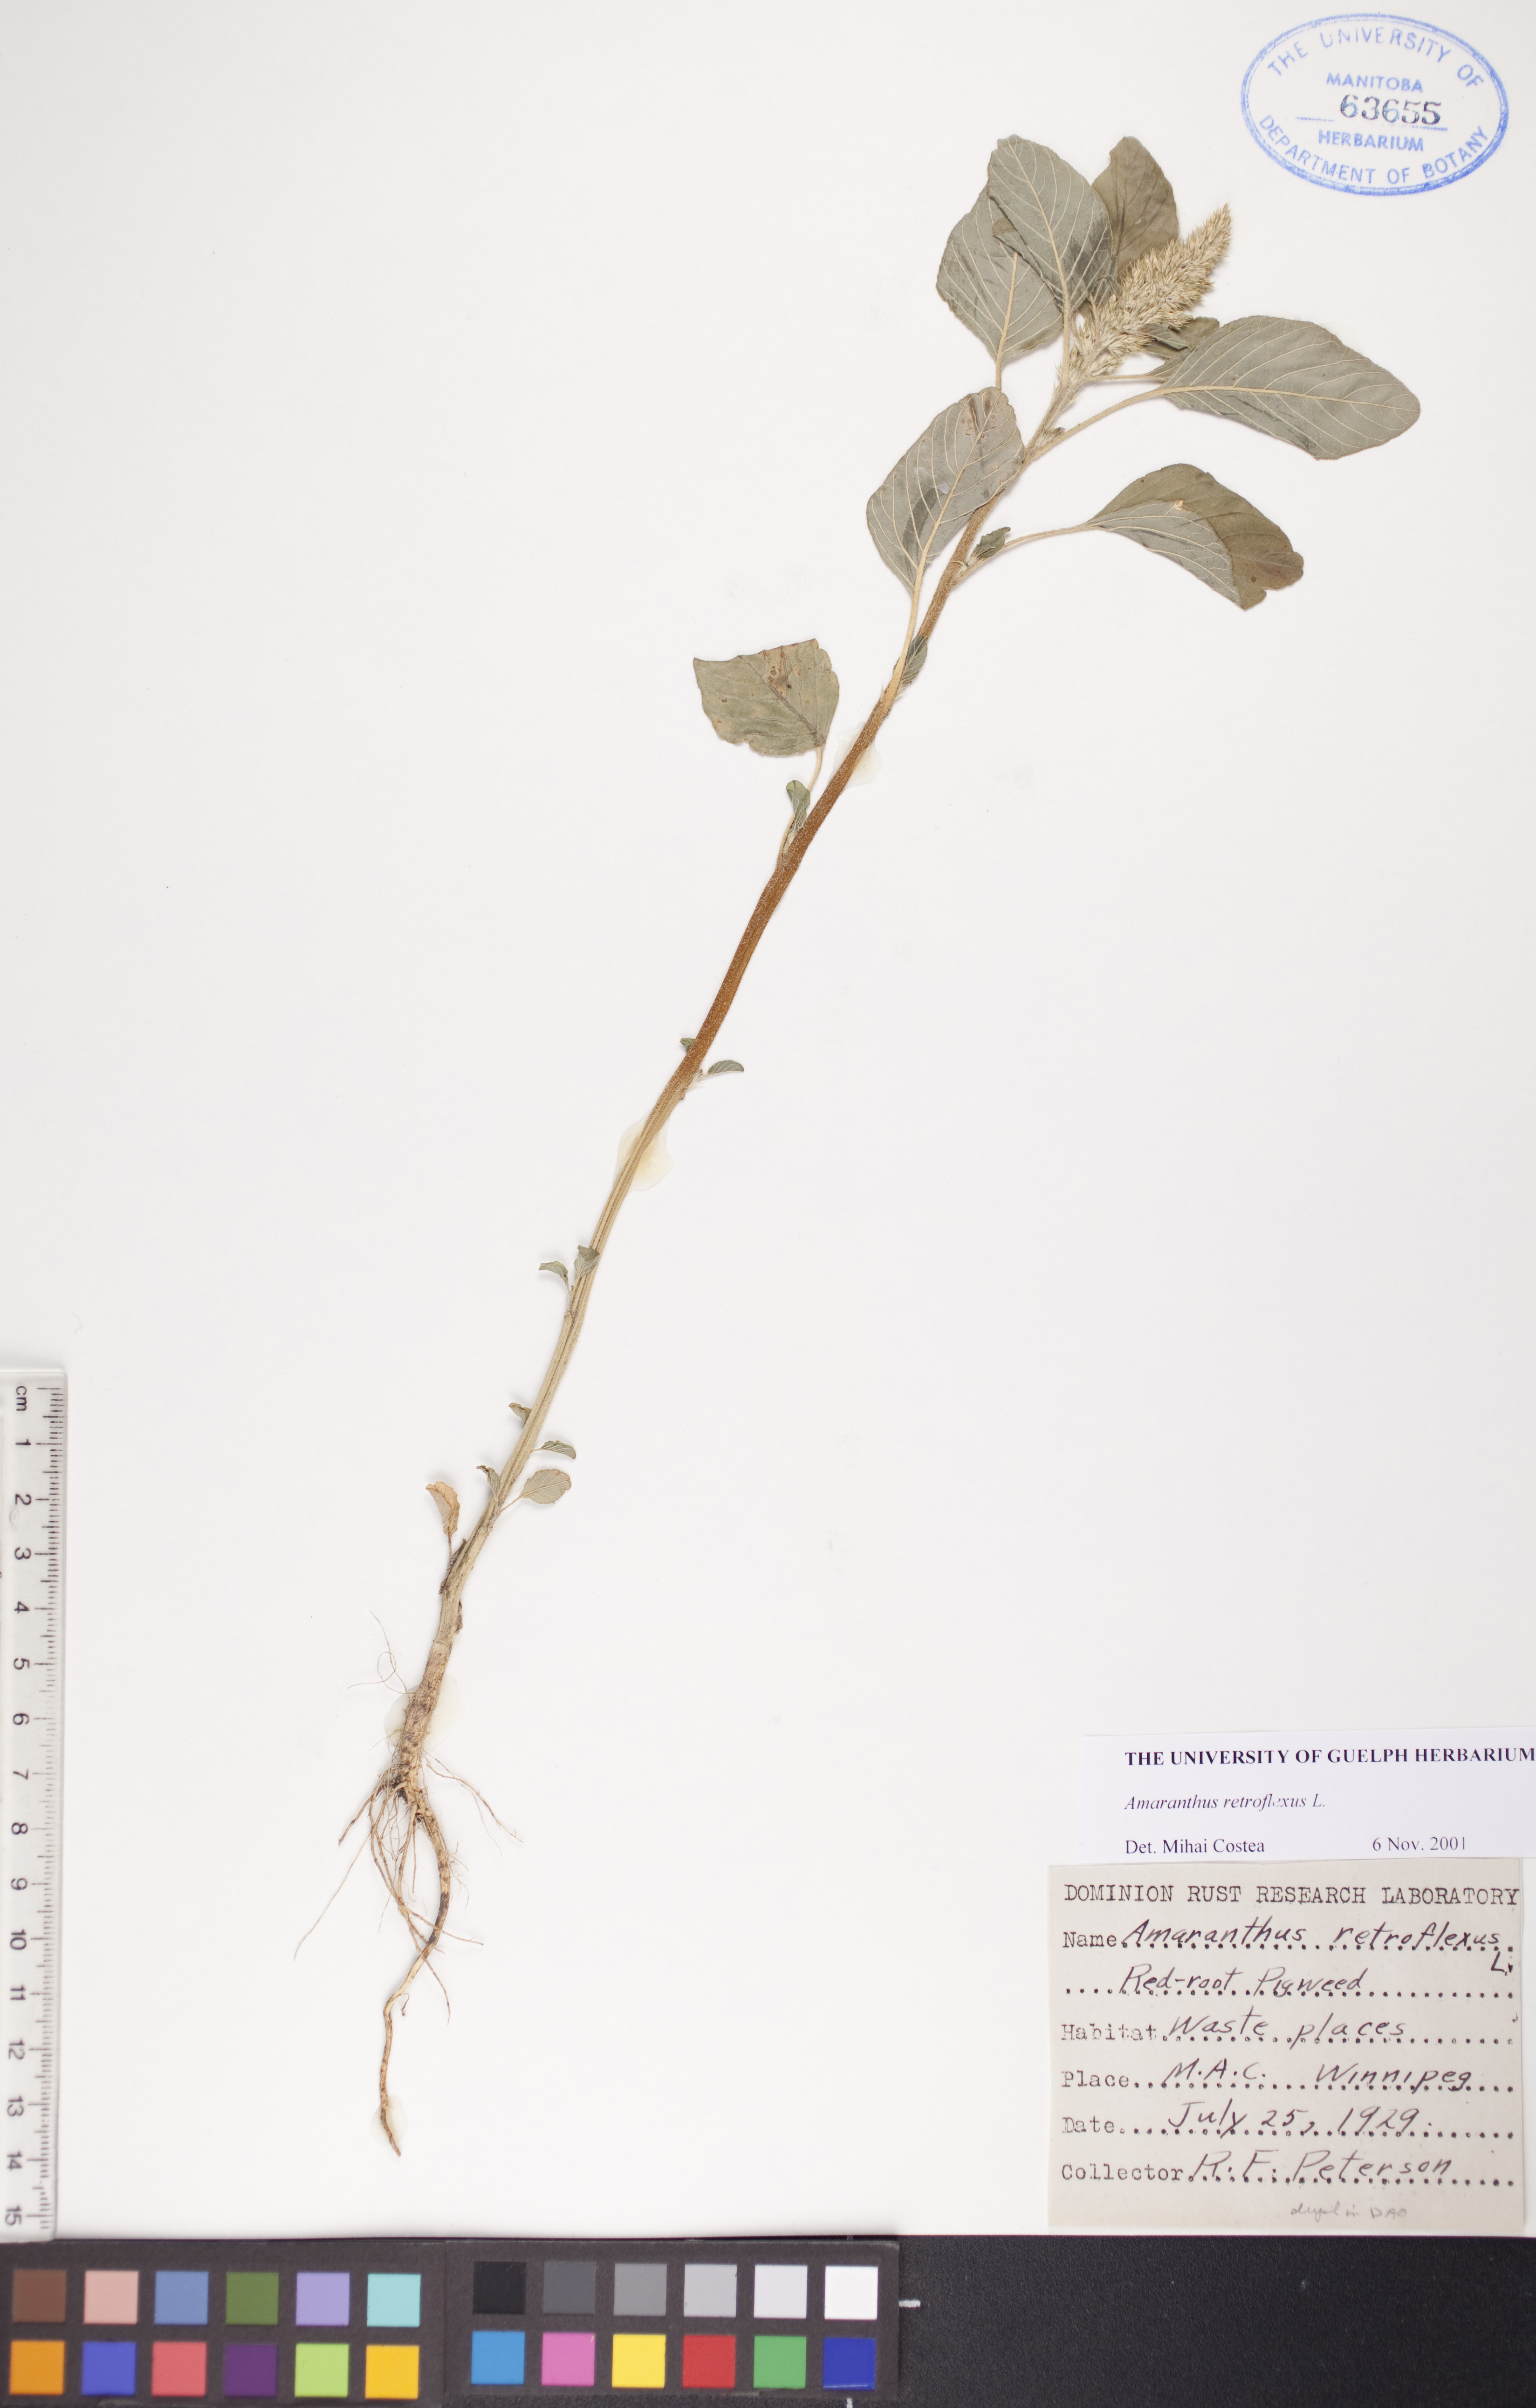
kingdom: Plantae
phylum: Tracheophyta
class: Magnoliopsida
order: Caryophyllales
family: Amaranthaceae
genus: Amaranthus
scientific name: Amaranthus retroflexus
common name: Redroot amaranth
